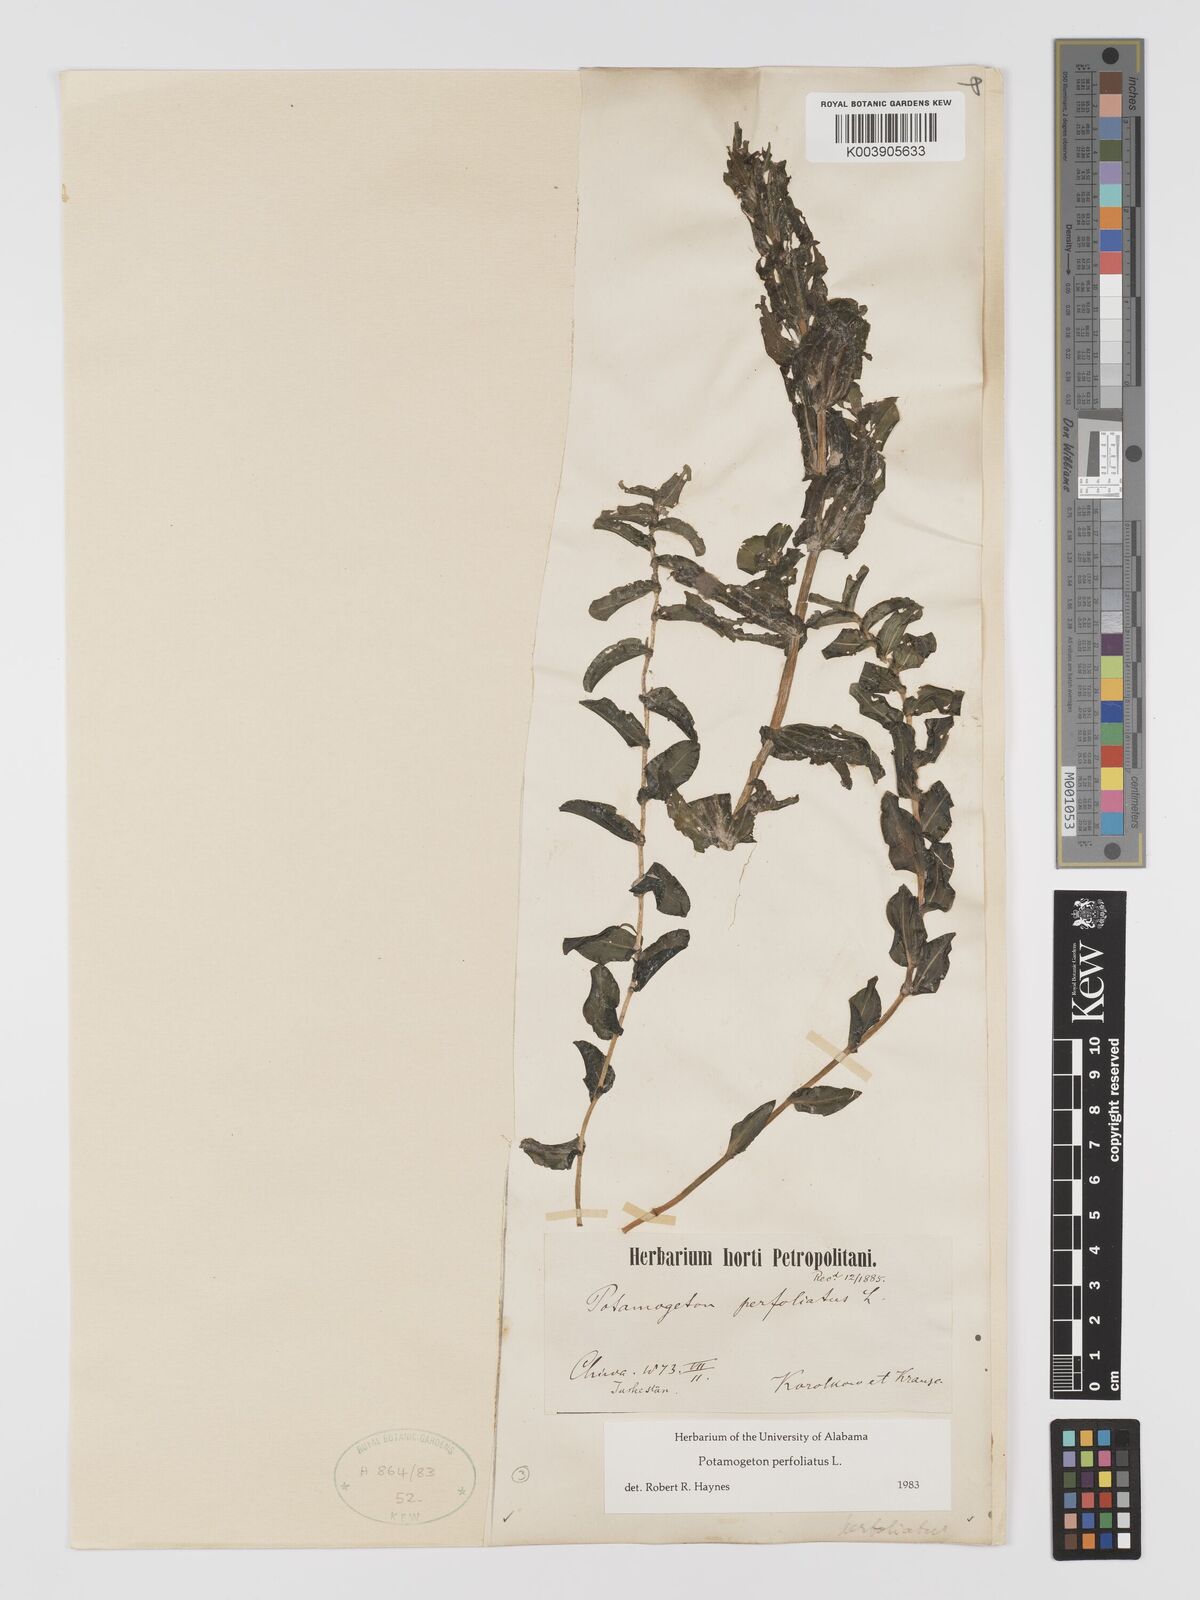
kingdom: Plantae
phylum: Tracheophyta
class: Liliopsida
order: Alismatales
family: Potamogetonaceae
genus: Potamogeton
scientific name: Potamogeton perfoliatus
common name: Perfoliate pondweed
